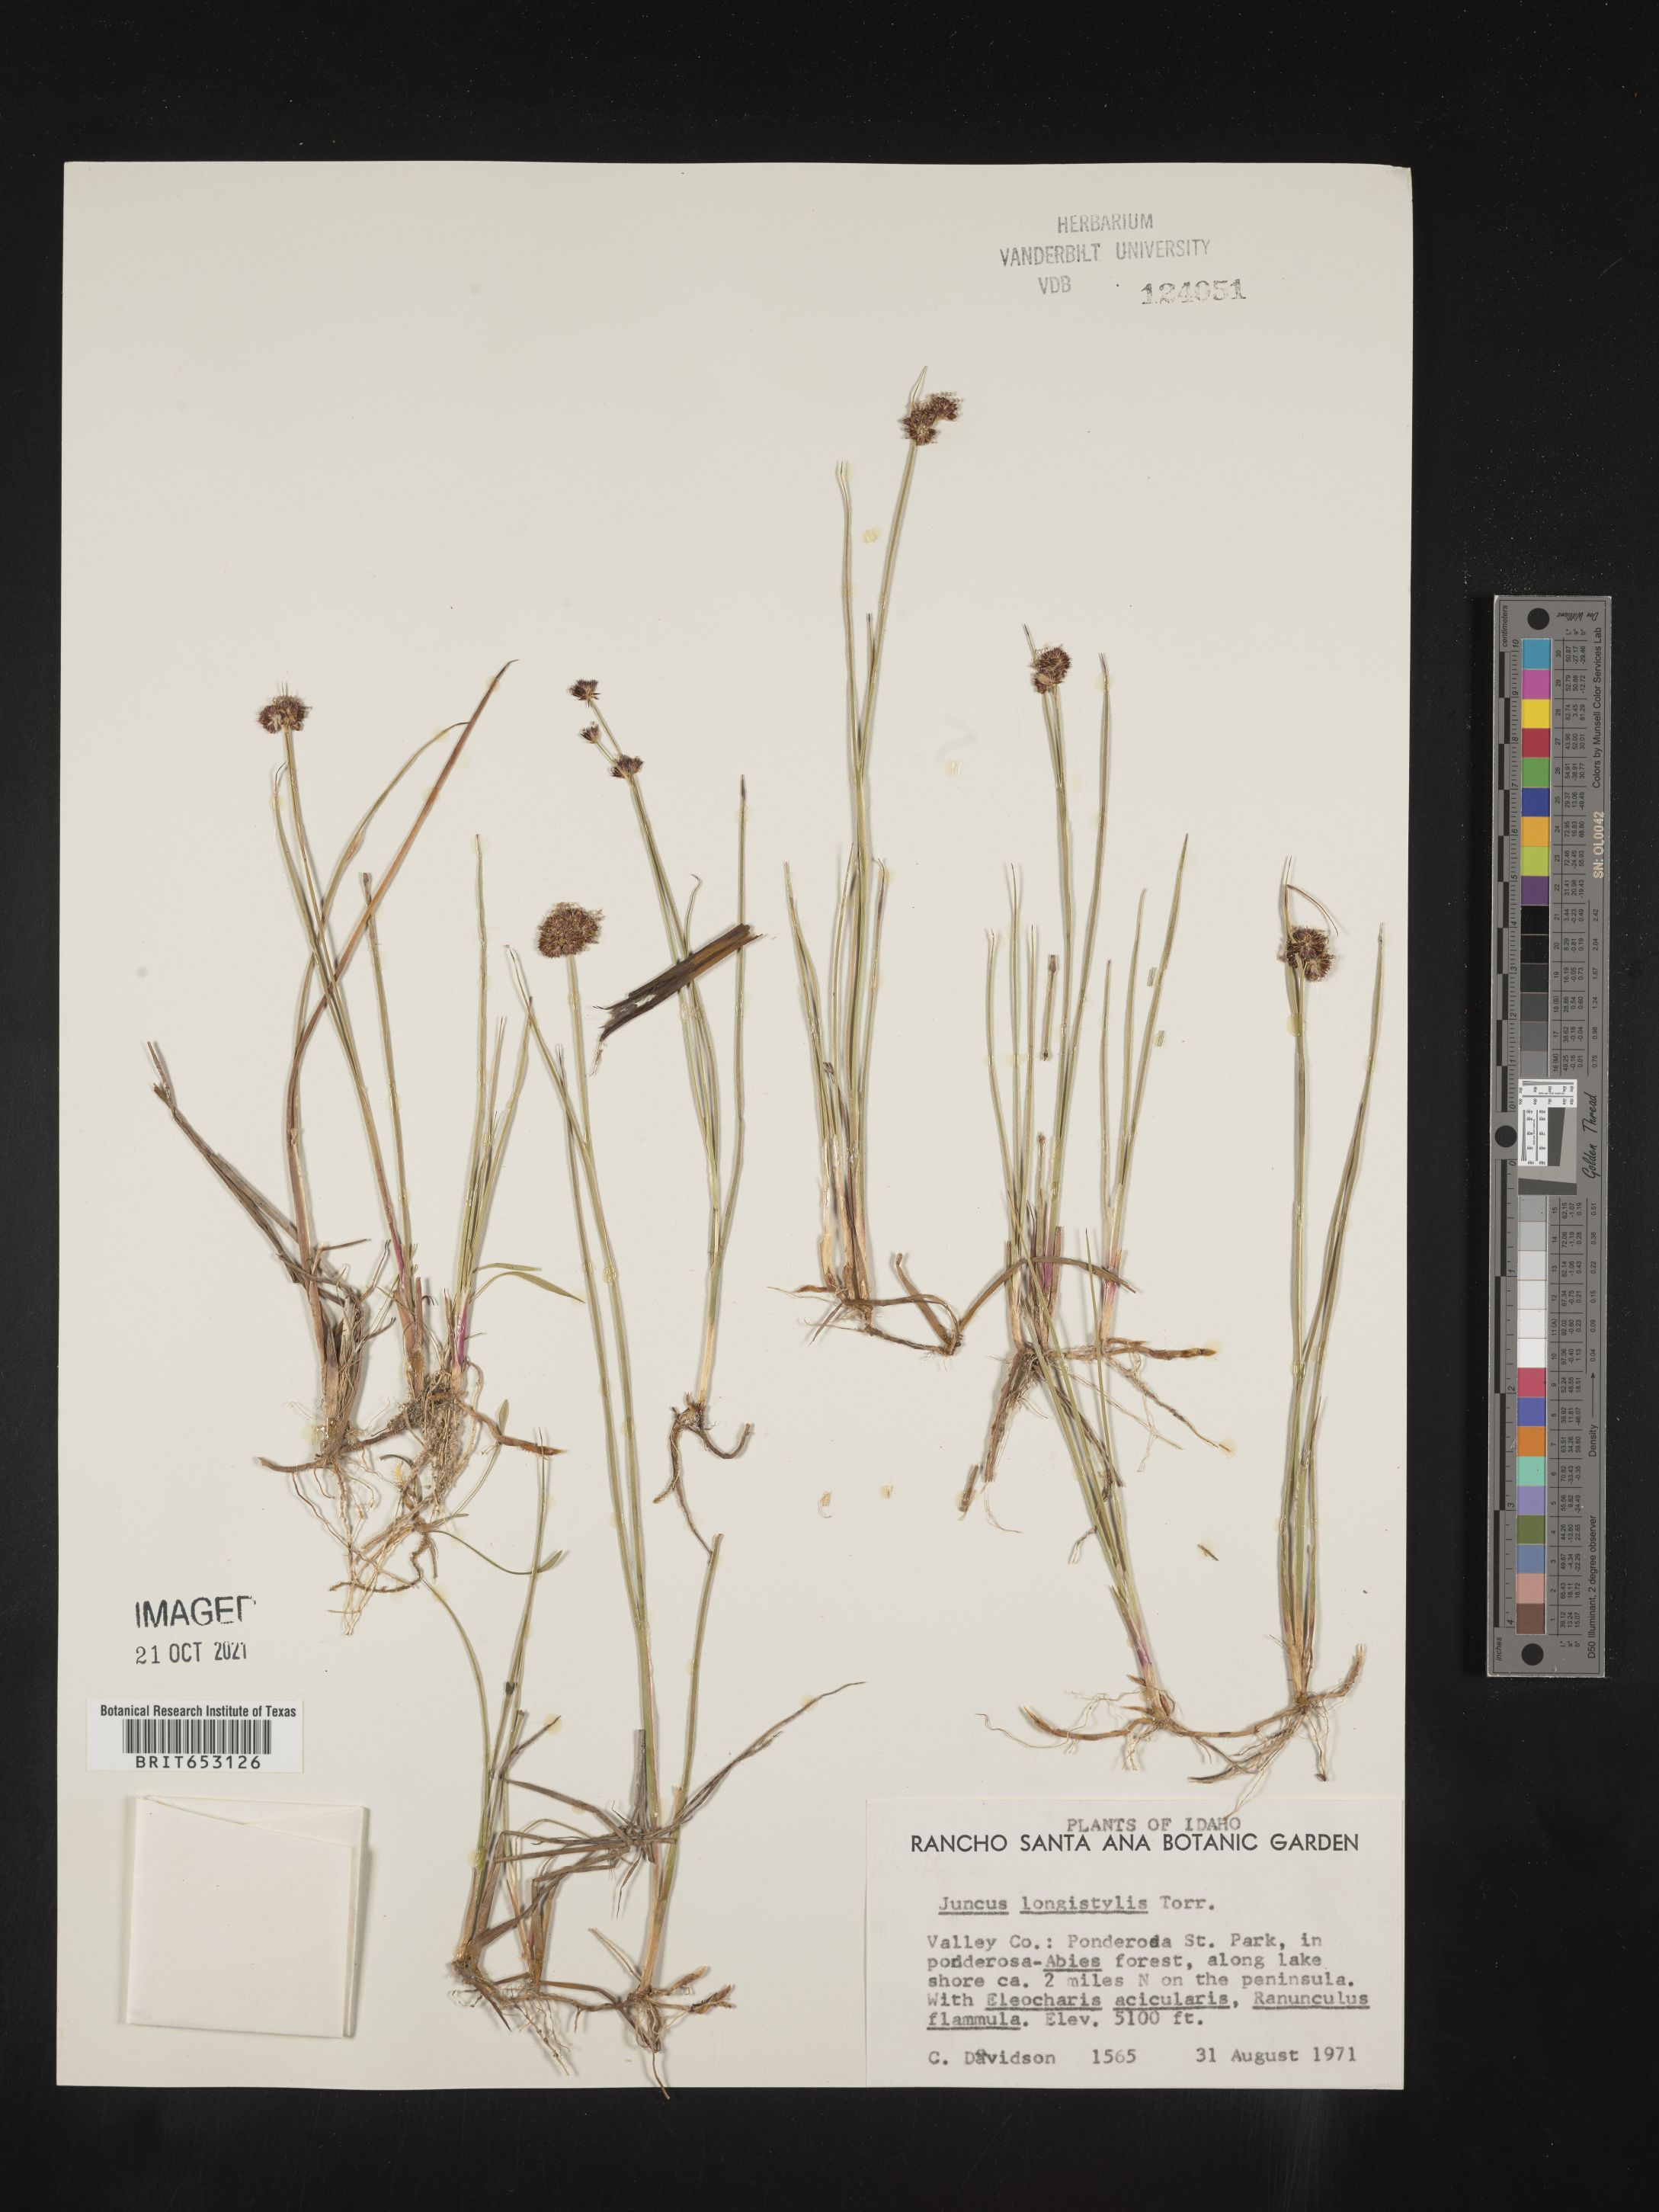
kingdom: Plantae
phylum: Tracheophyta
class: Liliopsida
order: Poales
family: Juncaceae
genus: Juncus
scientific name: Juncus longistylis
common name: Long-style rush
